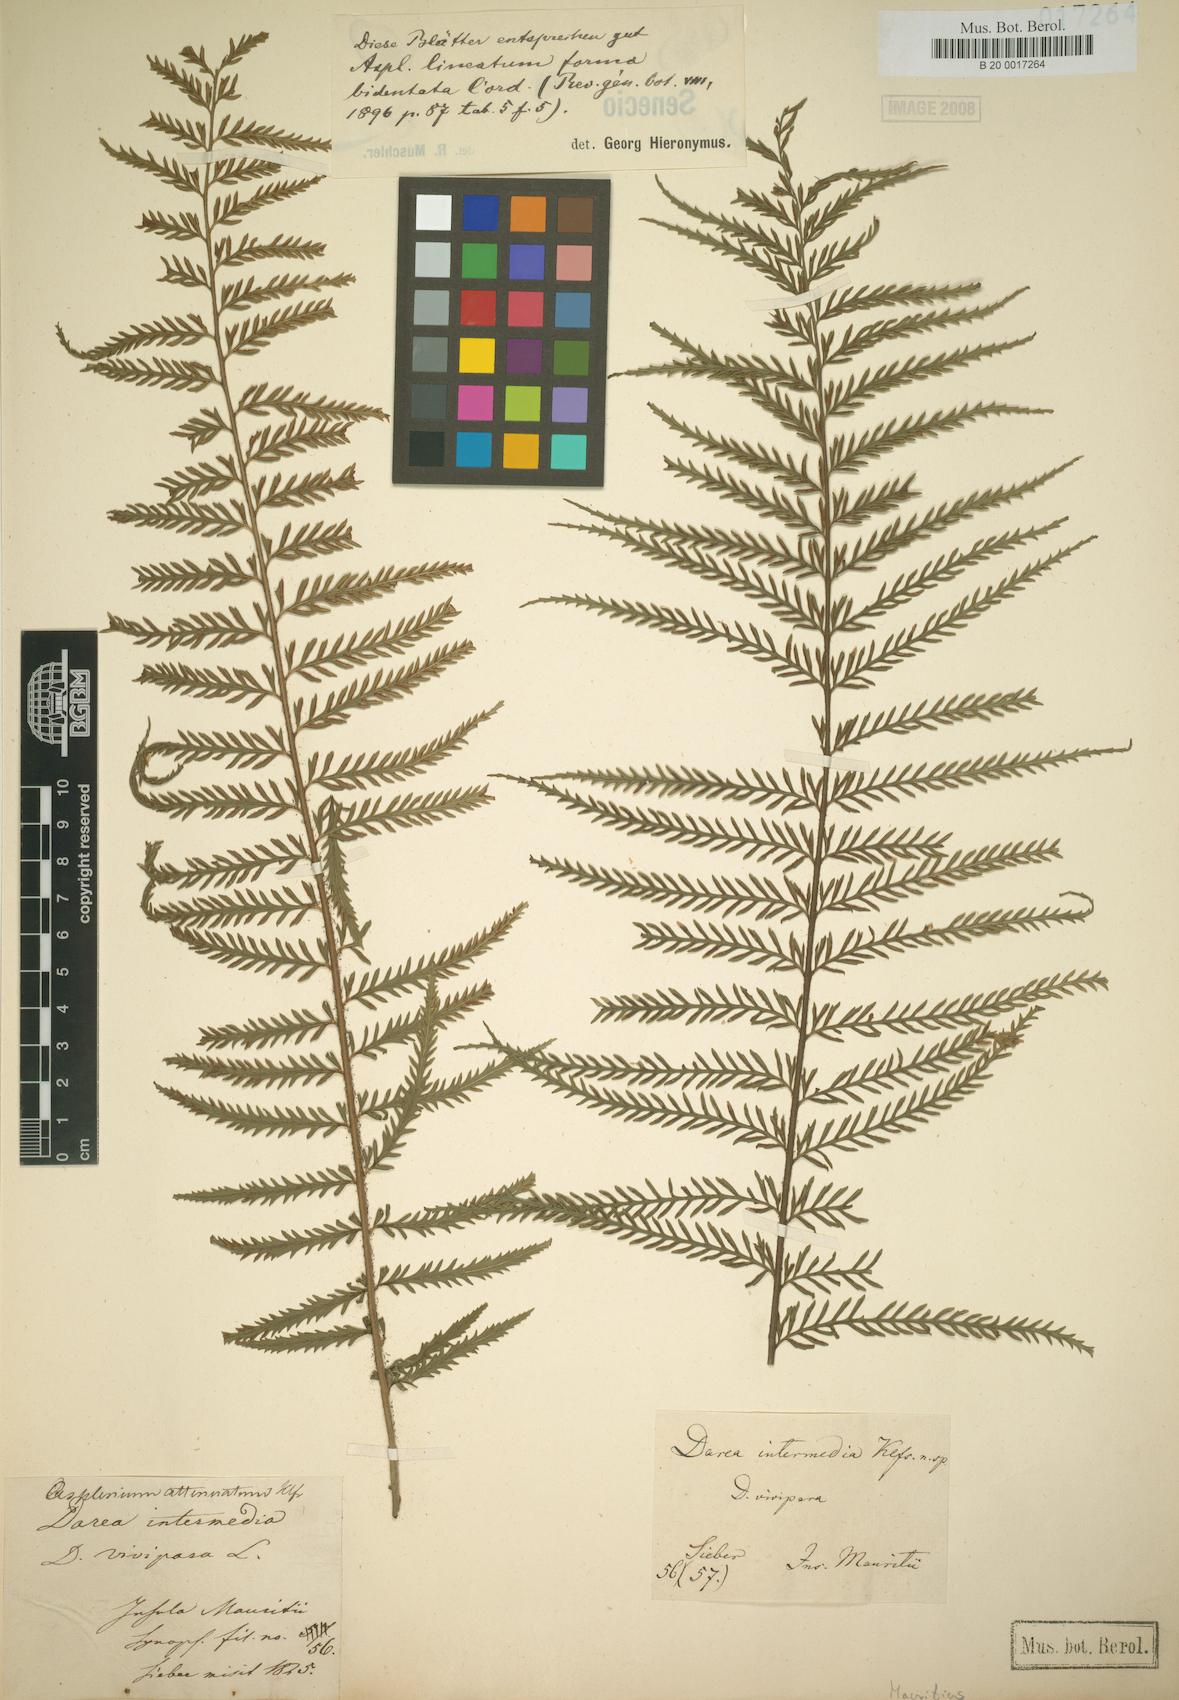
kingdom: Plantae
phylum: Tracheophyta
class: Polypodiopsida
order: Polypodiales
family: Aspleniaceae
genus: Asplenium
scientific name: Asplenium daucifolium
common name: Mauritius spleenwort
